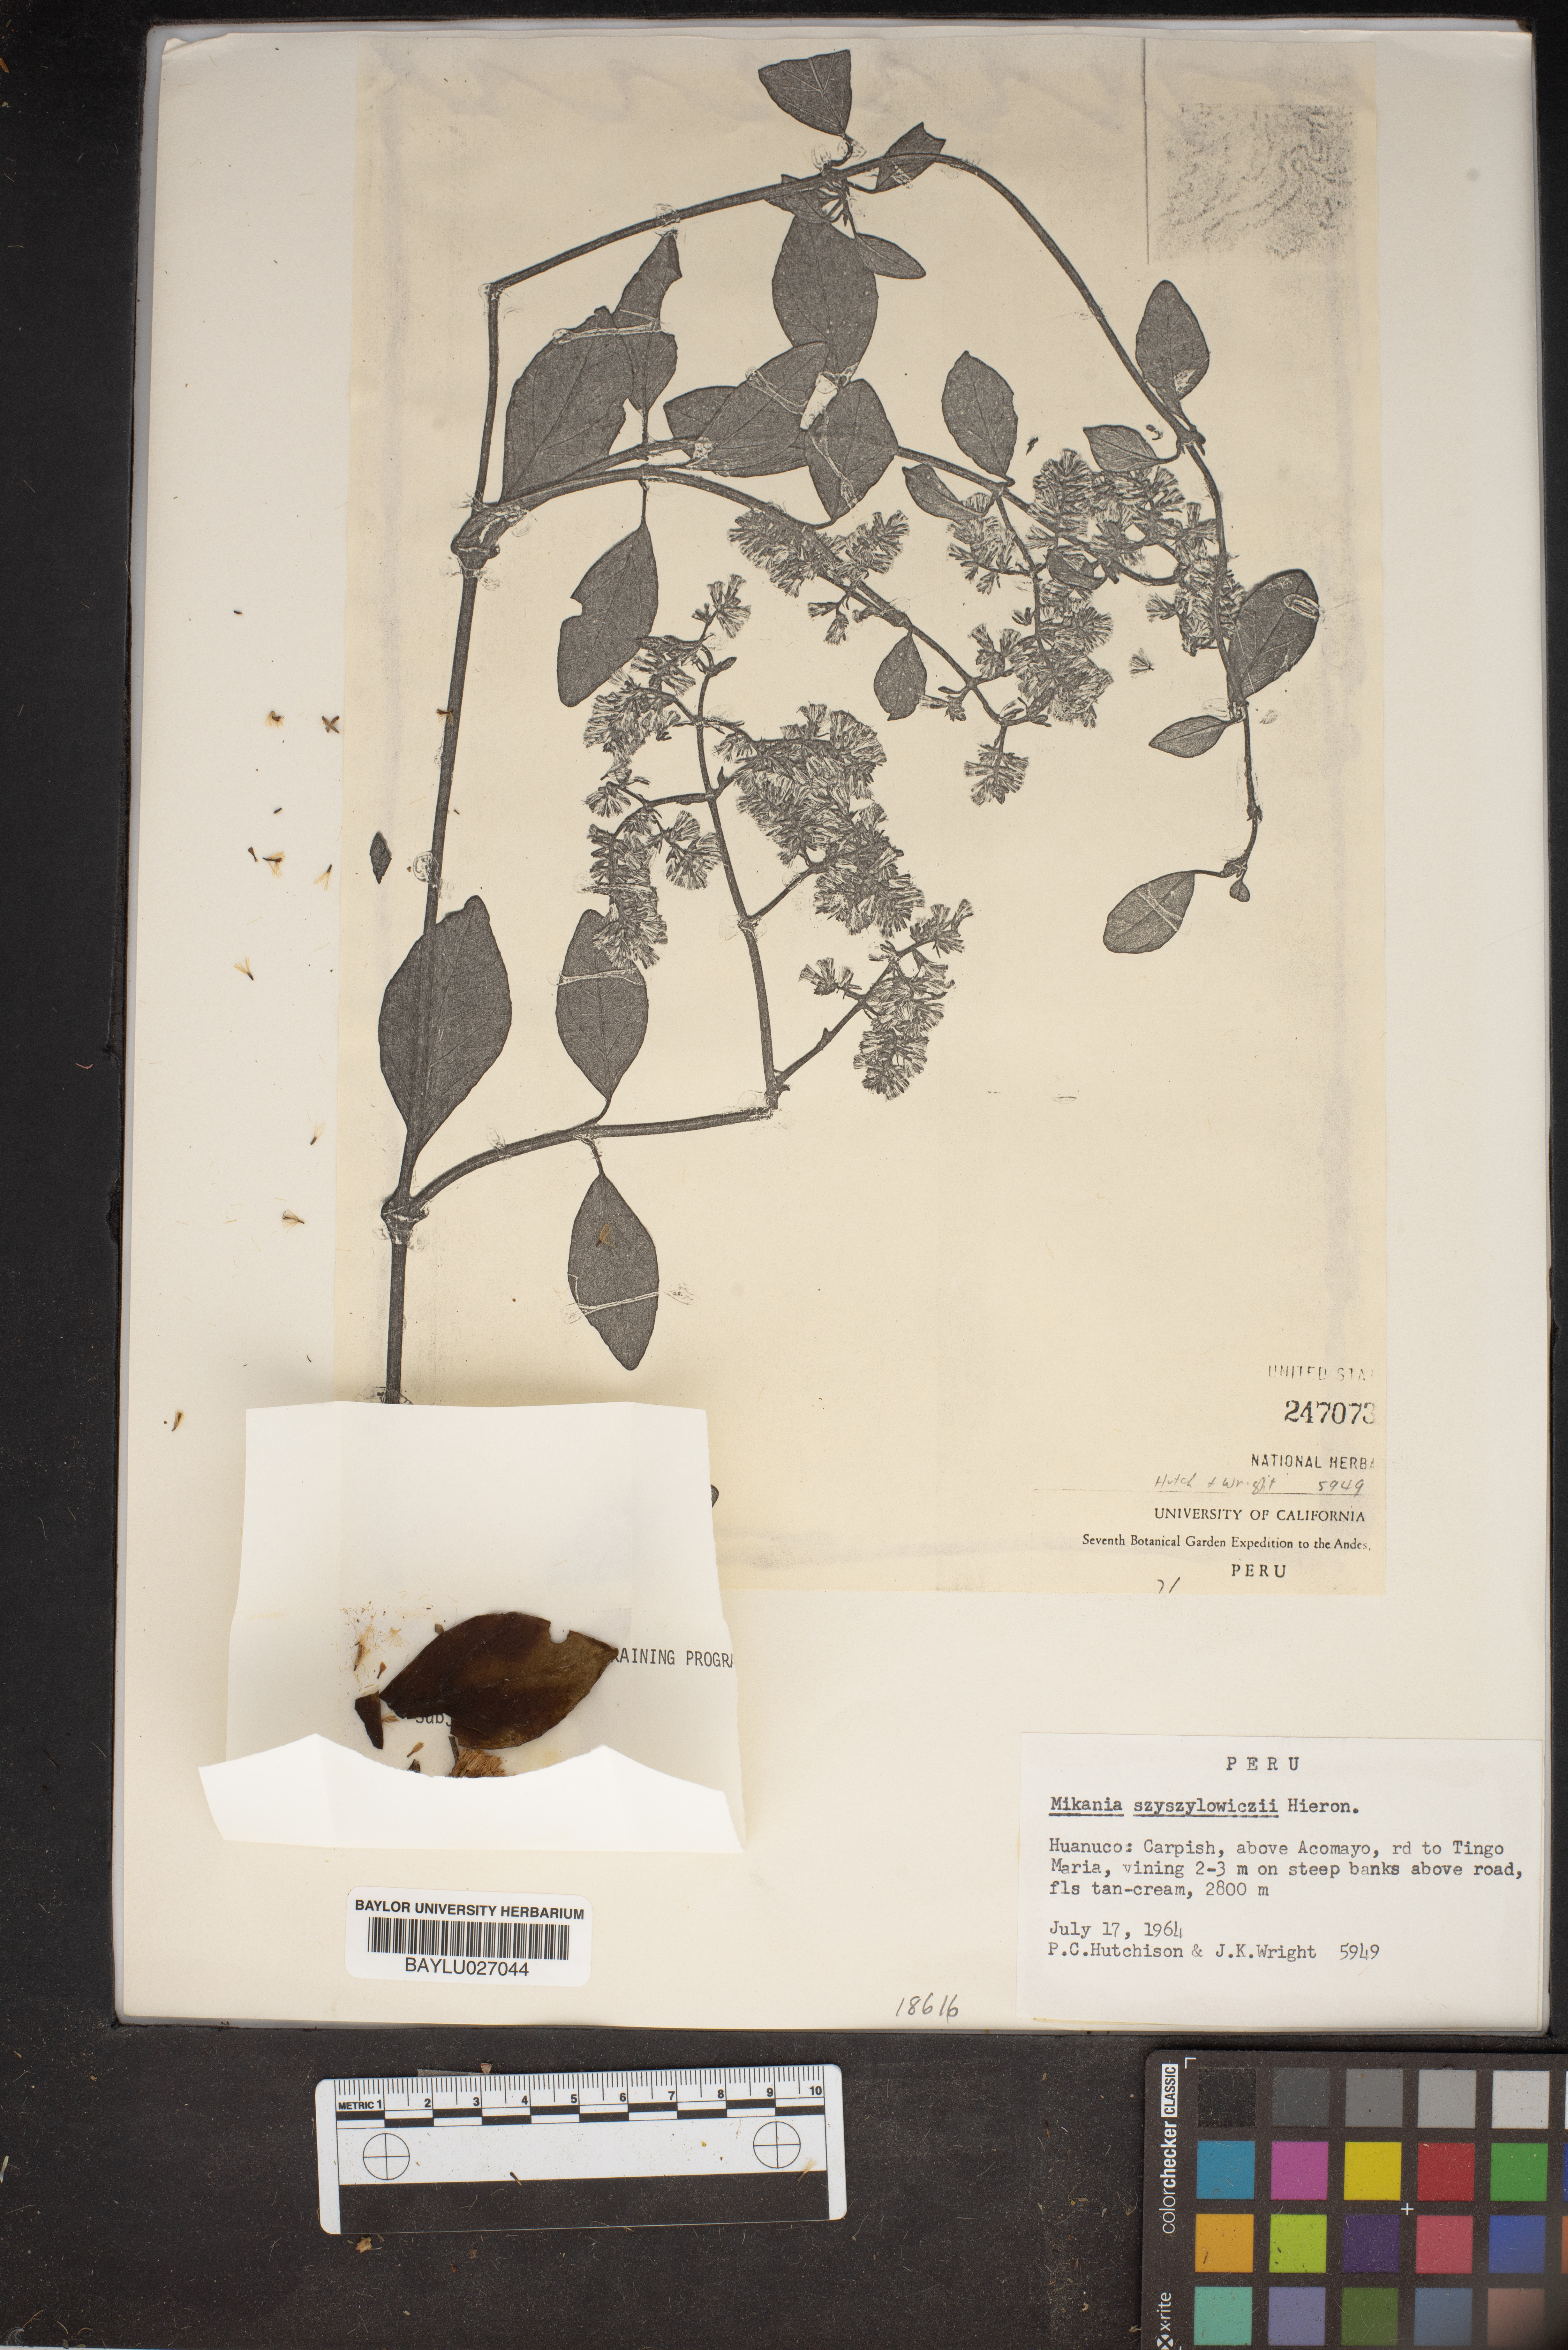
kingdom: Plantae
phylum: Tracheophyta
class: Magnoliopsida
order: Asterales
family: Asteraceae
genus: Mikania
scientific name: Mikania szyszylowiczii
